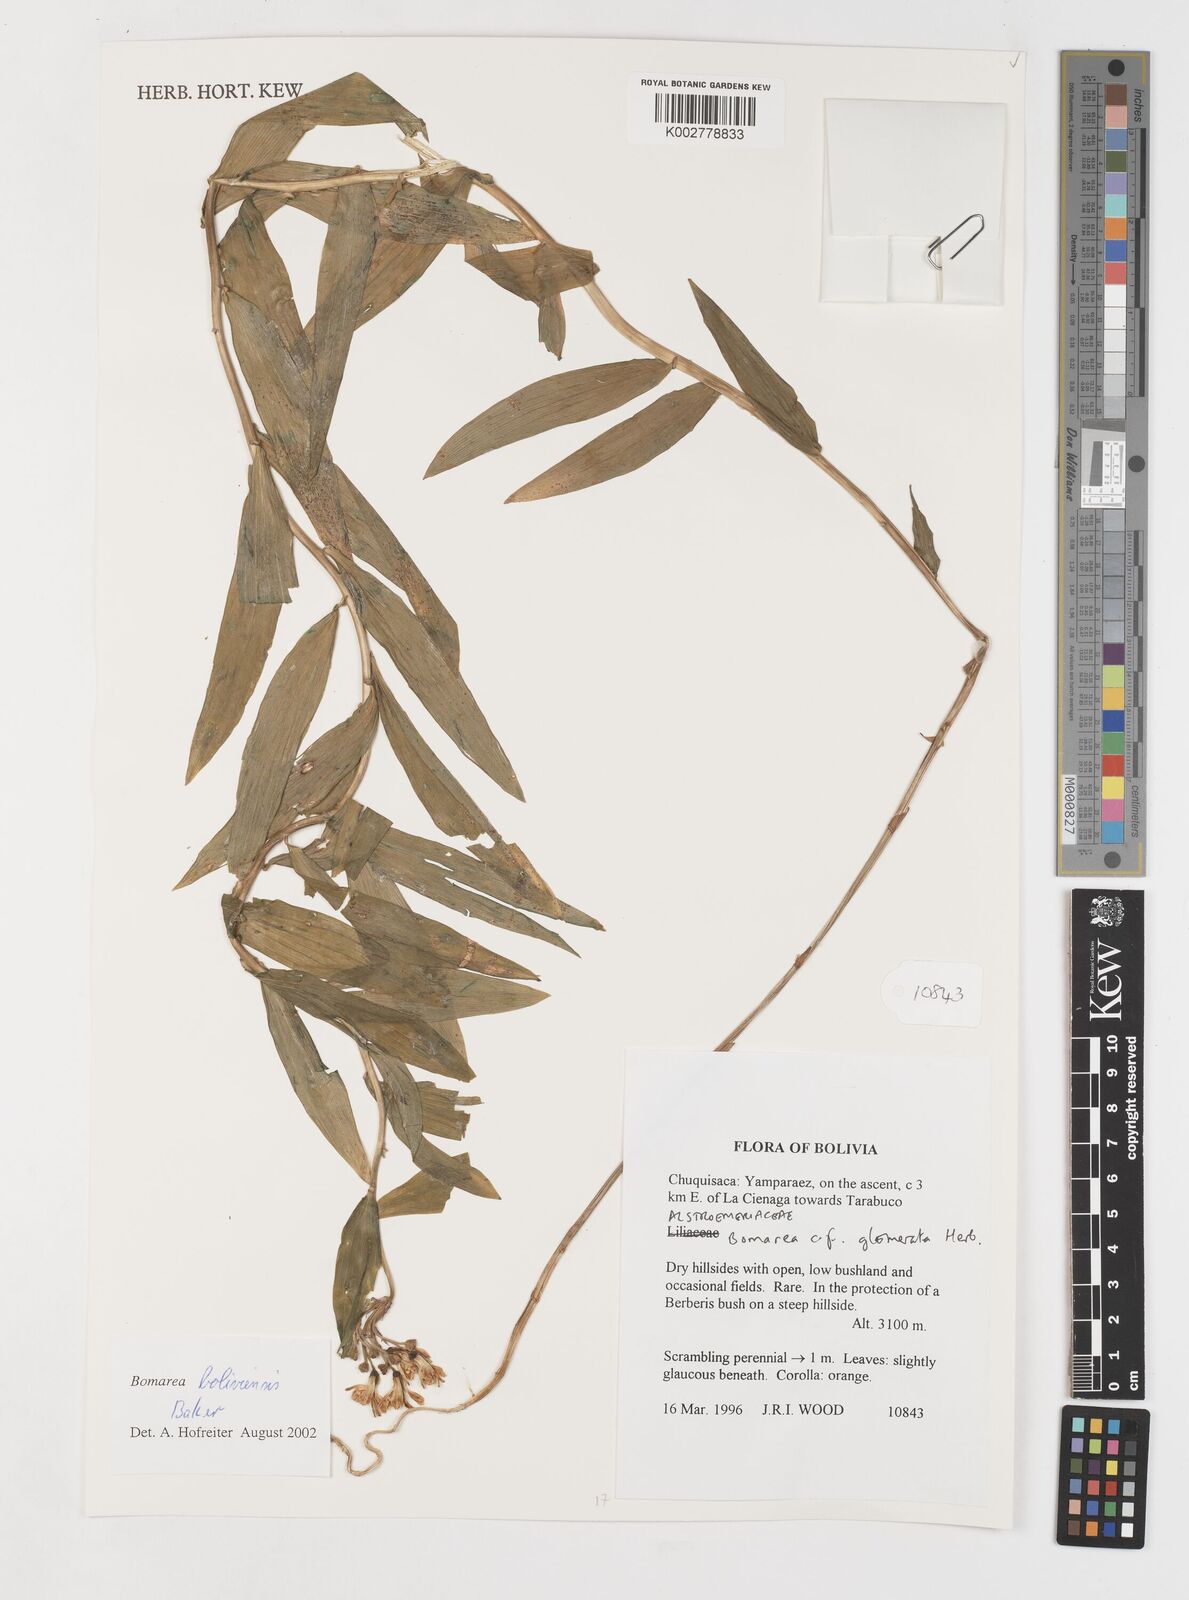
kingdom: Plantae
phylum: Tracheophyta
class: Liliopsida
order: Liliales
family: Alstroemeriaceae
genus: Bomarea
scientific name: Bomarea boliviensis
